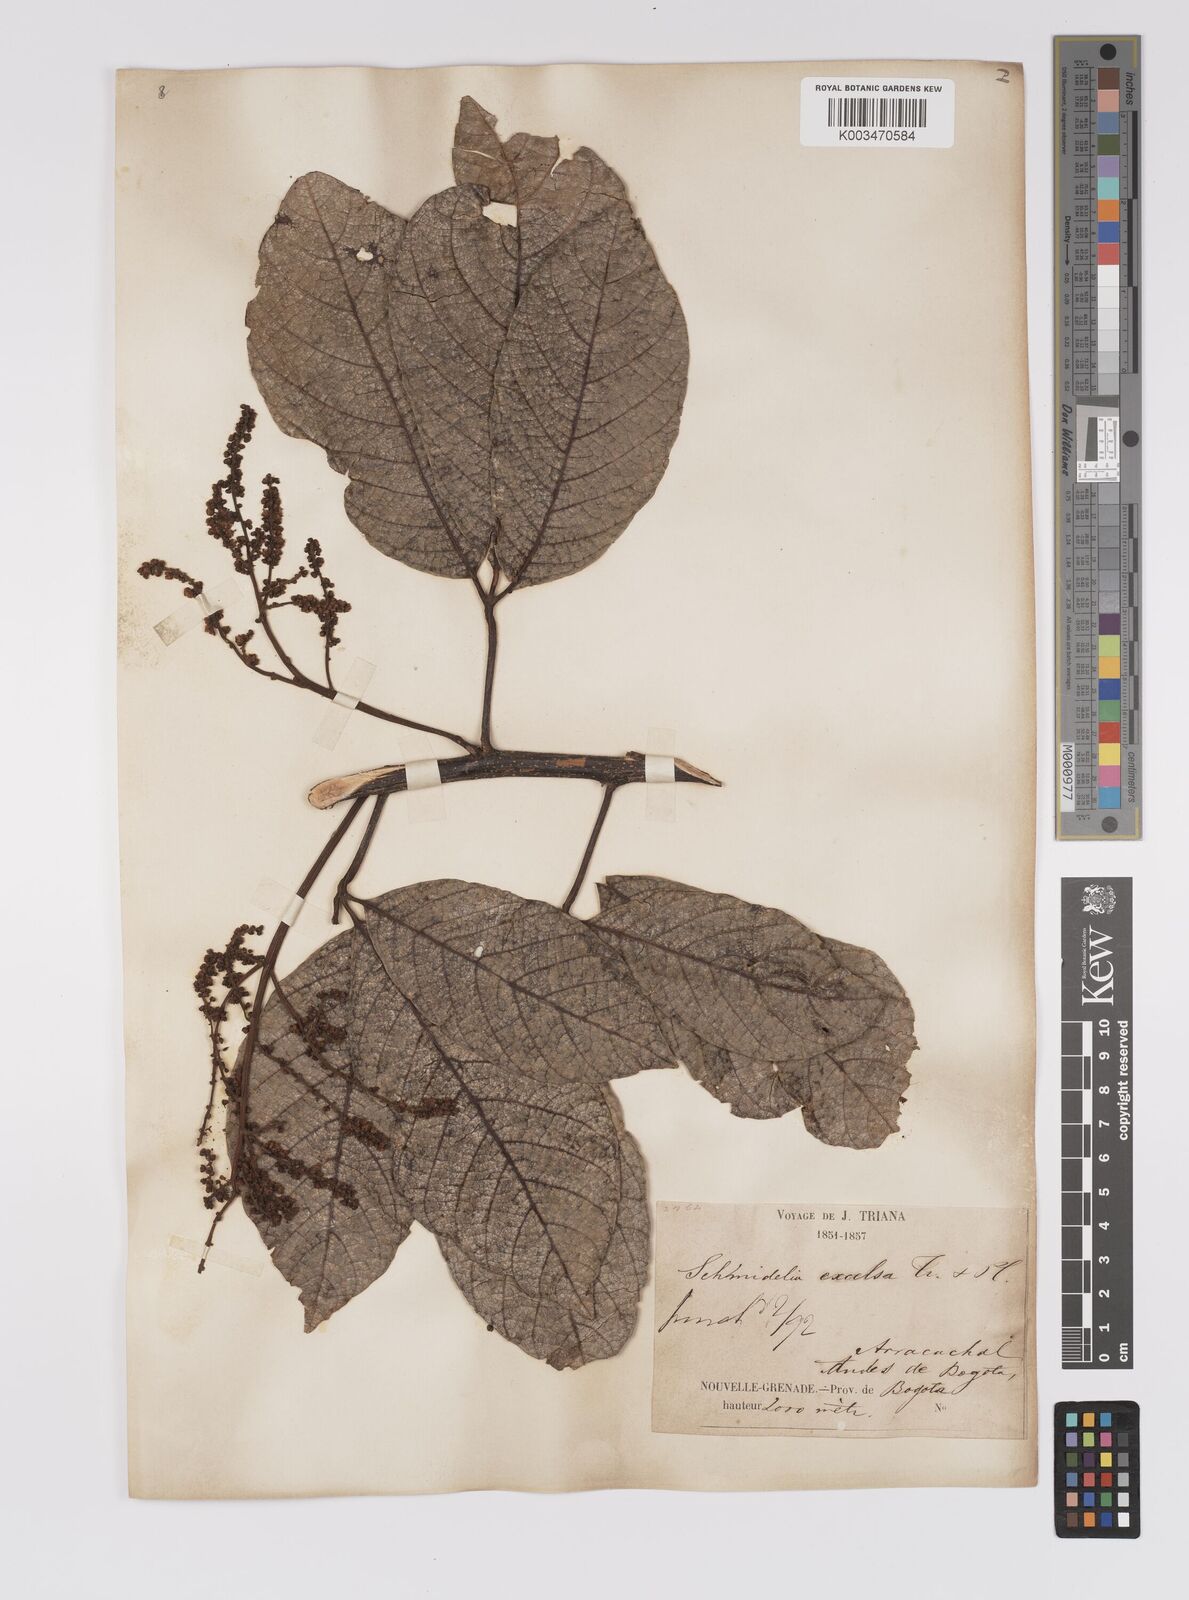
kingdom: Plantae
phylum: Tracheophyta
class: Magnoliopsida
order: Sapindales
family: Sapindaceae
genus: Allophylus
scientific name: Allophylus excelsus
